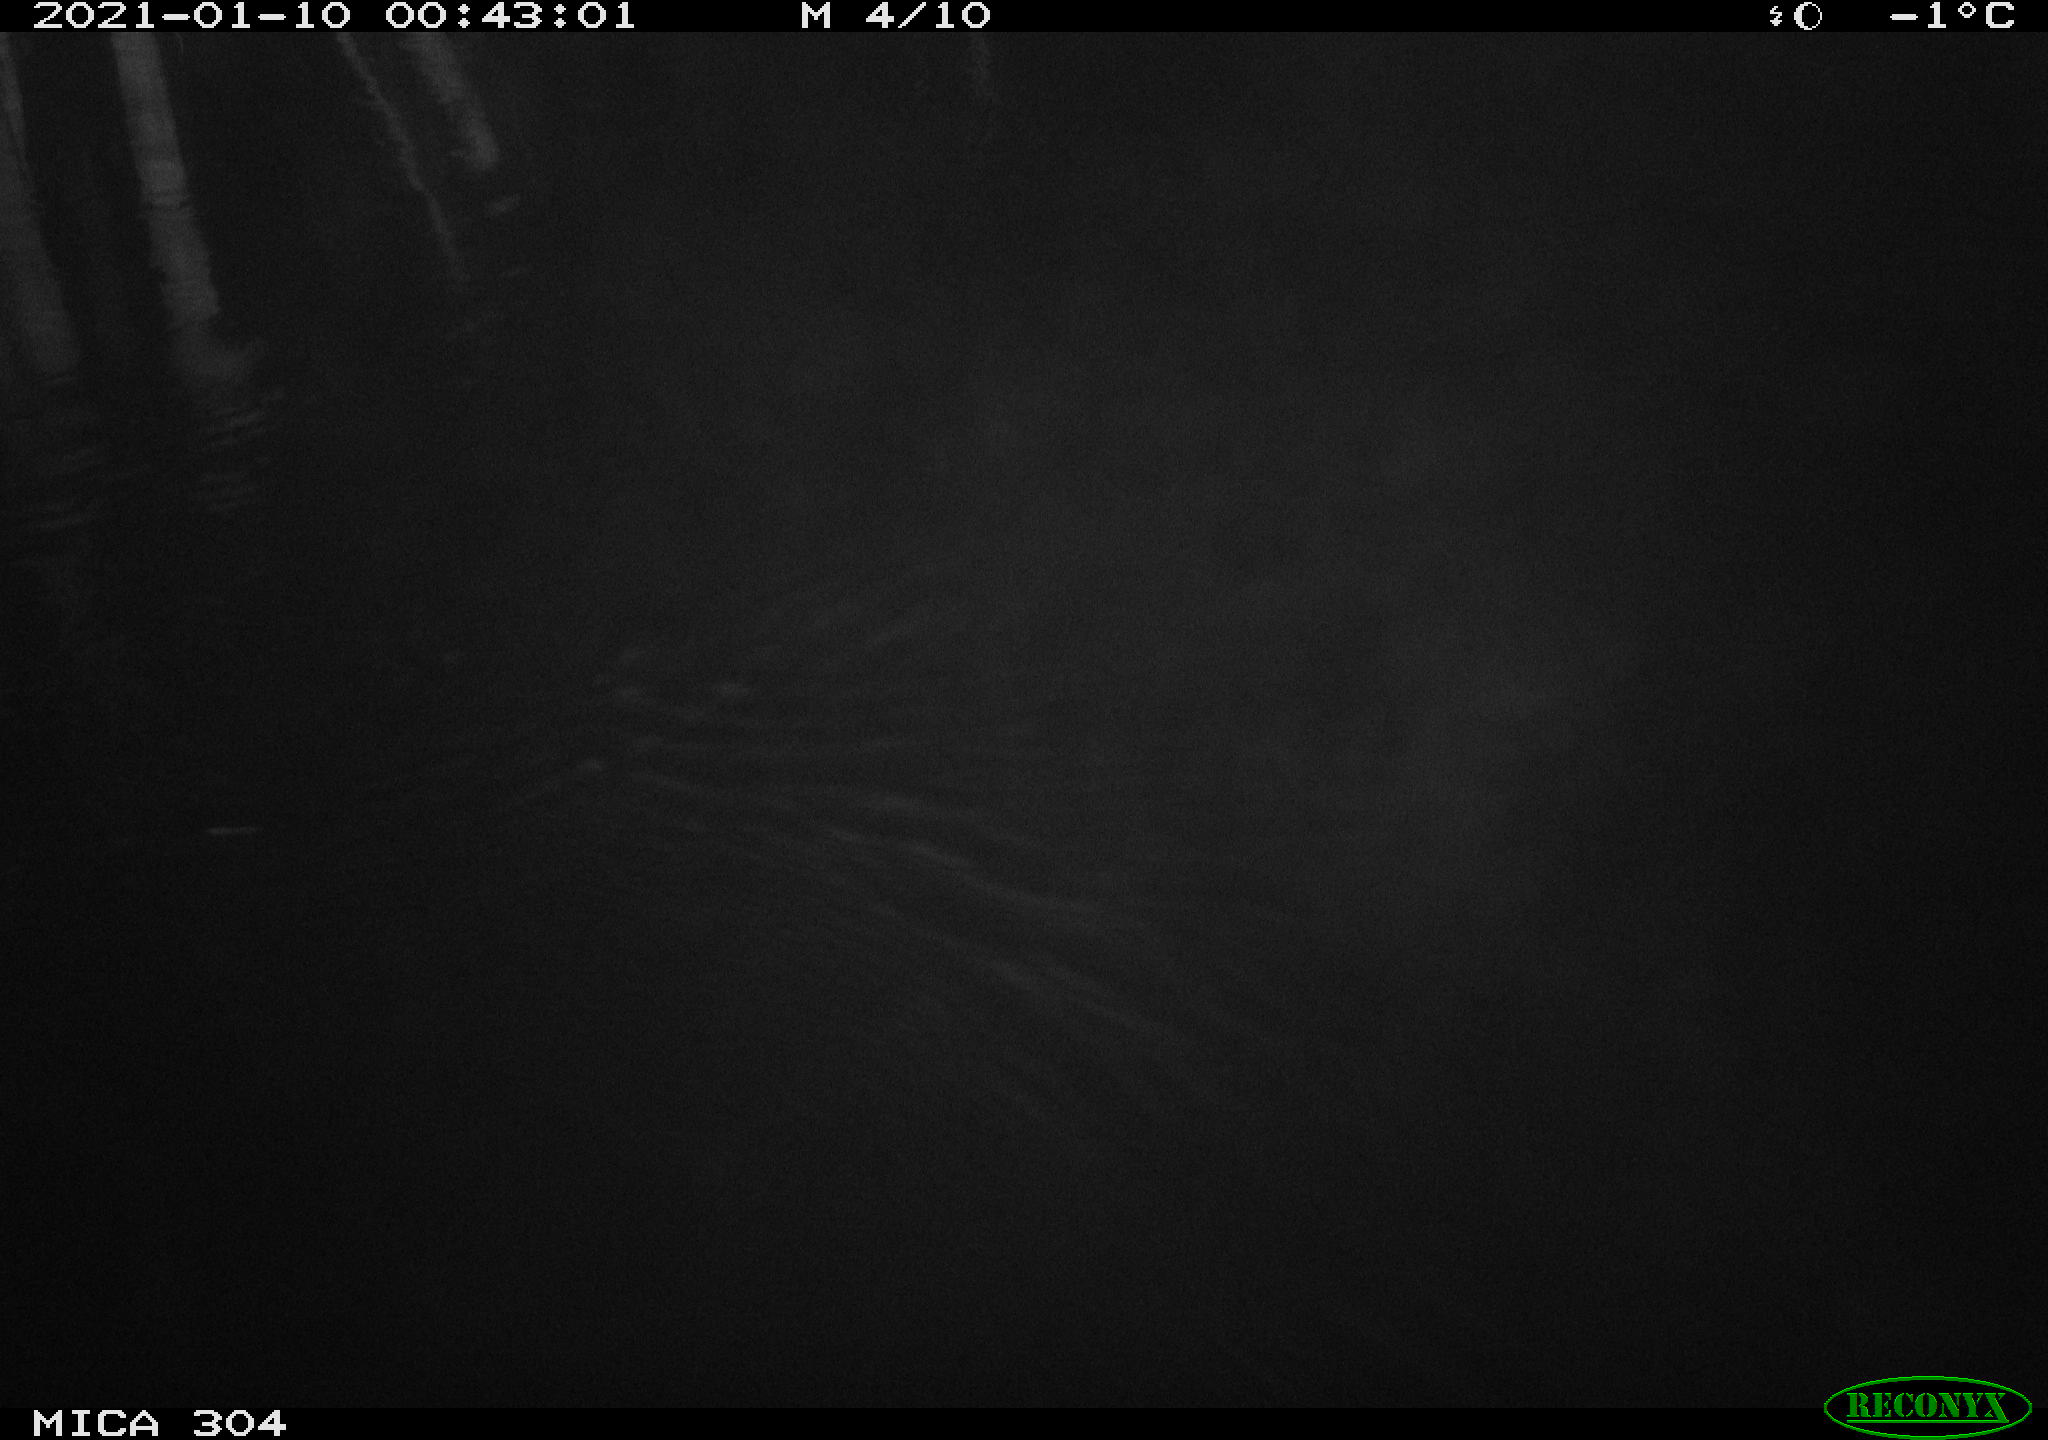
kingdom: Animalia
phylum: Chordata
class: Mammalia
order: Rodentia
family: Muridae
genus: Rattus
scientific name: Rattus norvegicus
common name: Brown rat
